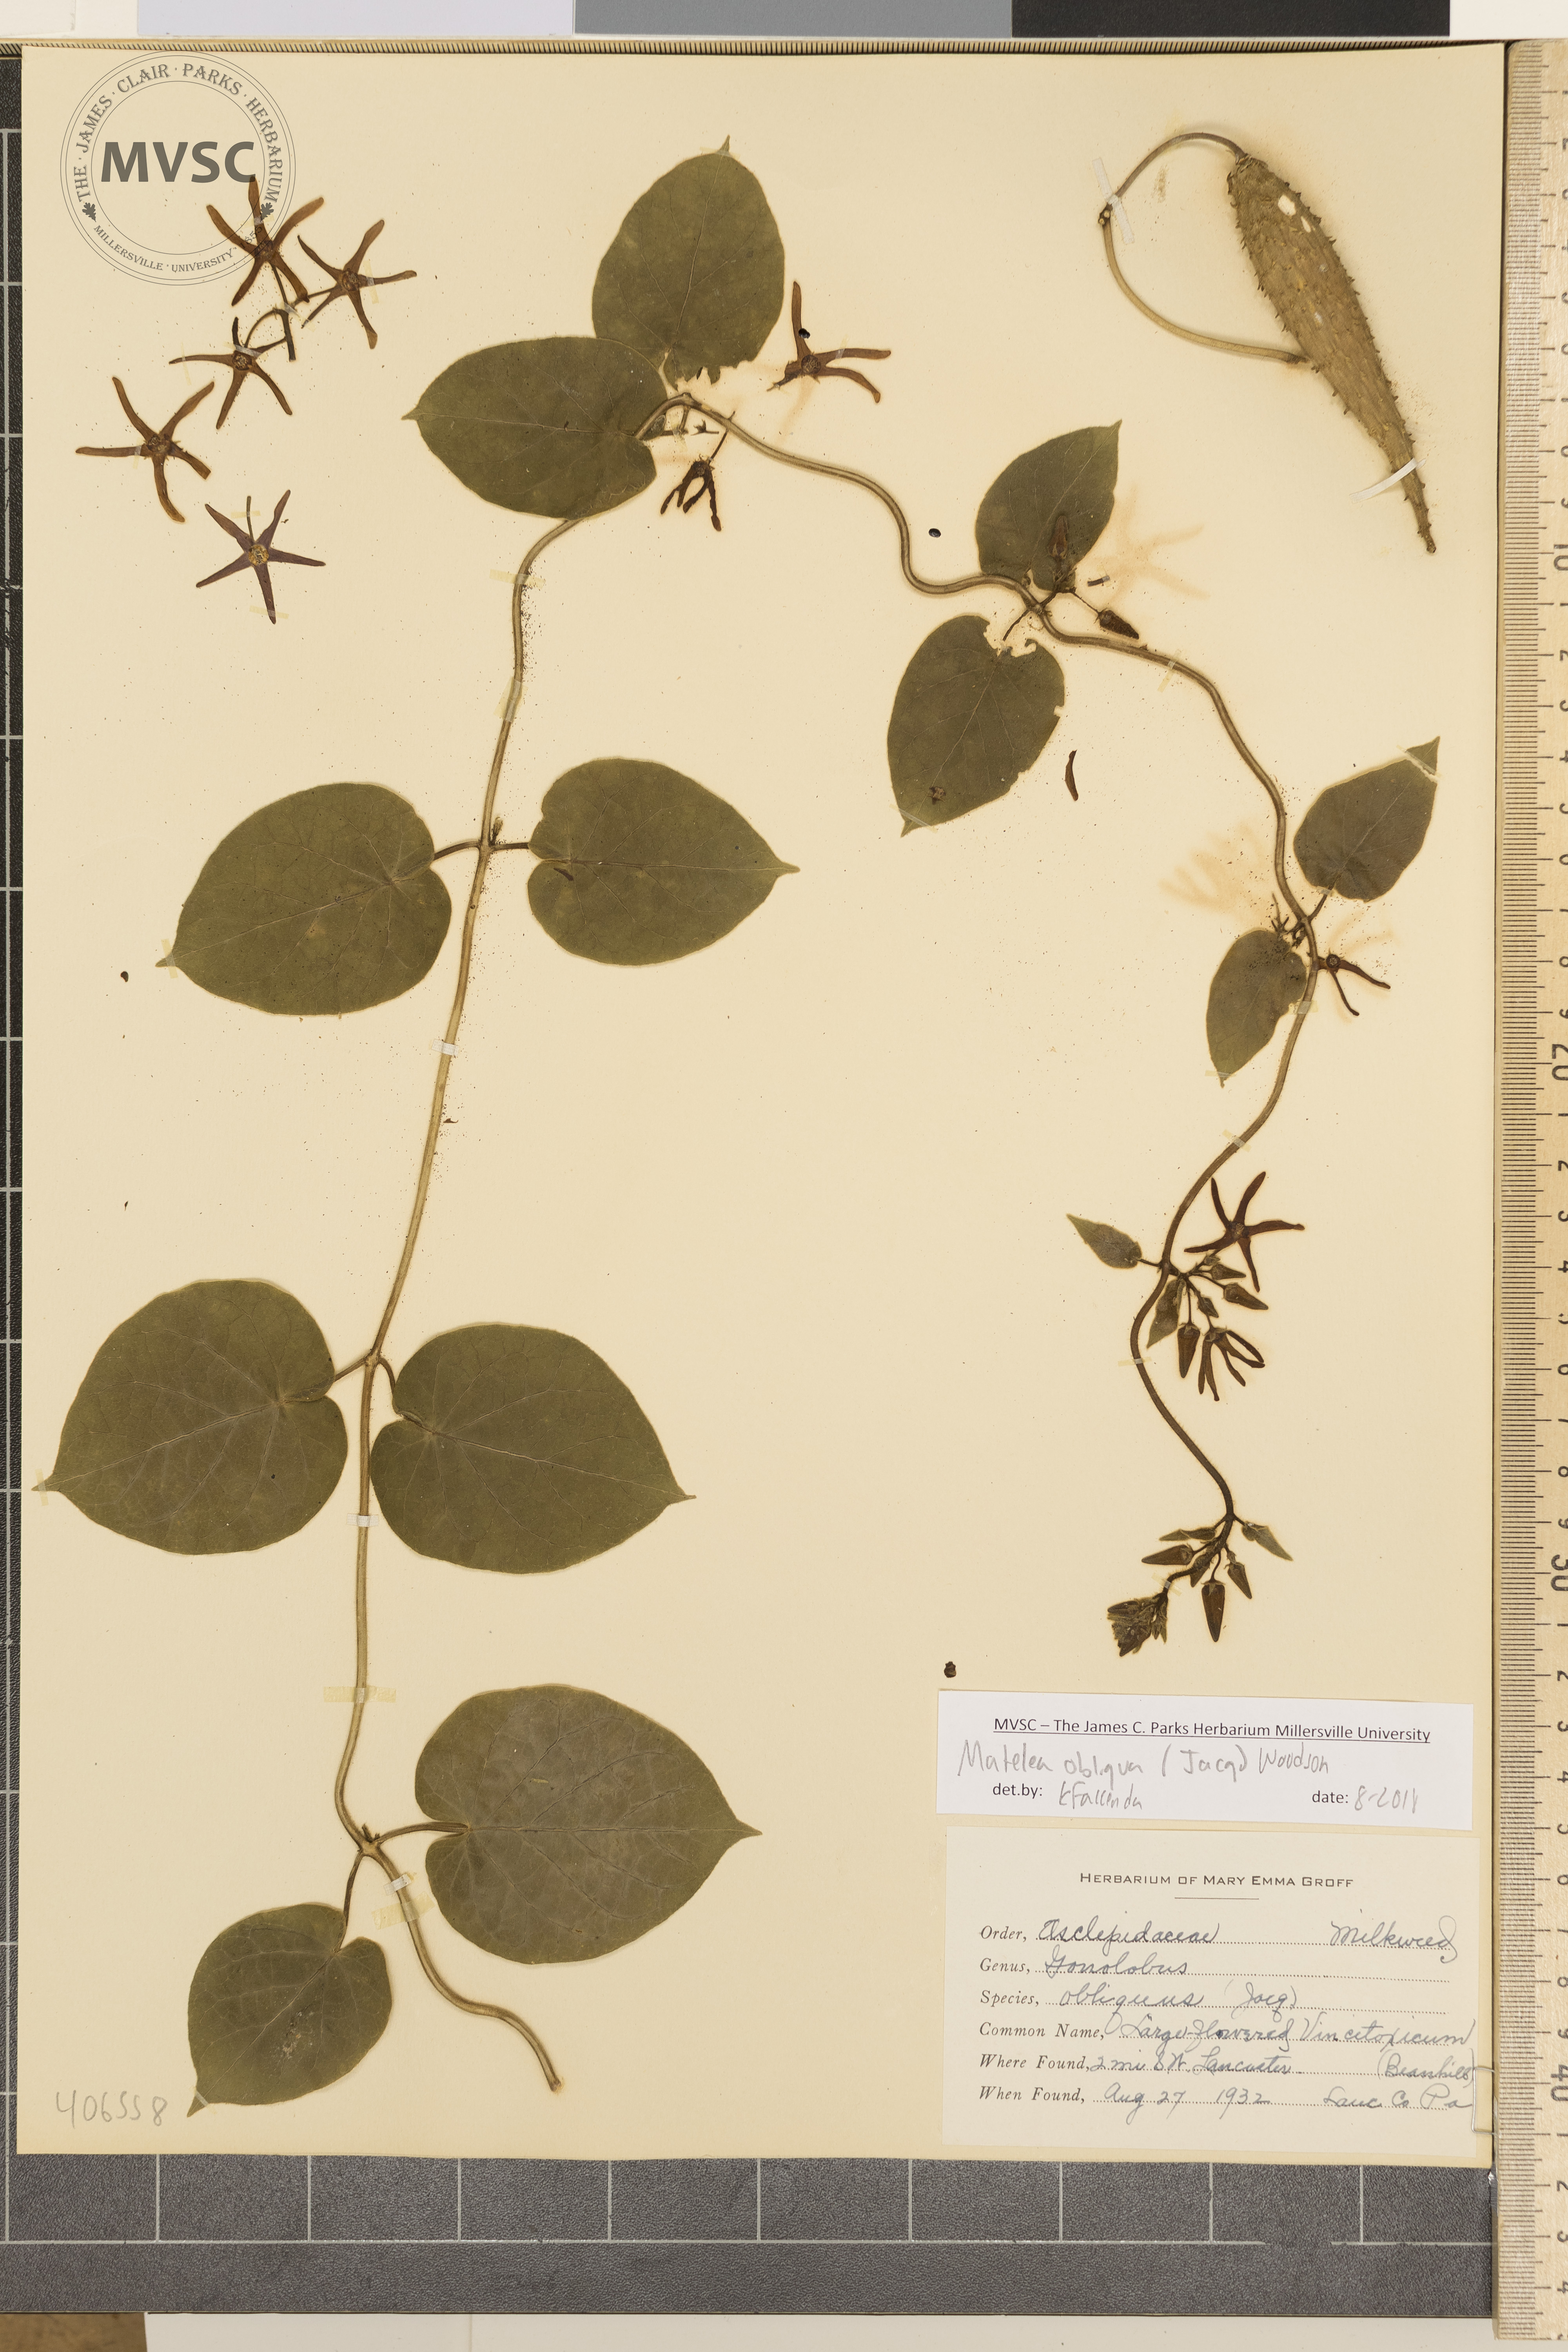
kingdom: Plantae
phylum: Tracheophyta
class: Magnoliopsida
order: Gentianales
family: Apocynaceae
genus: Matelea
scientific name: Matelea obliqua
